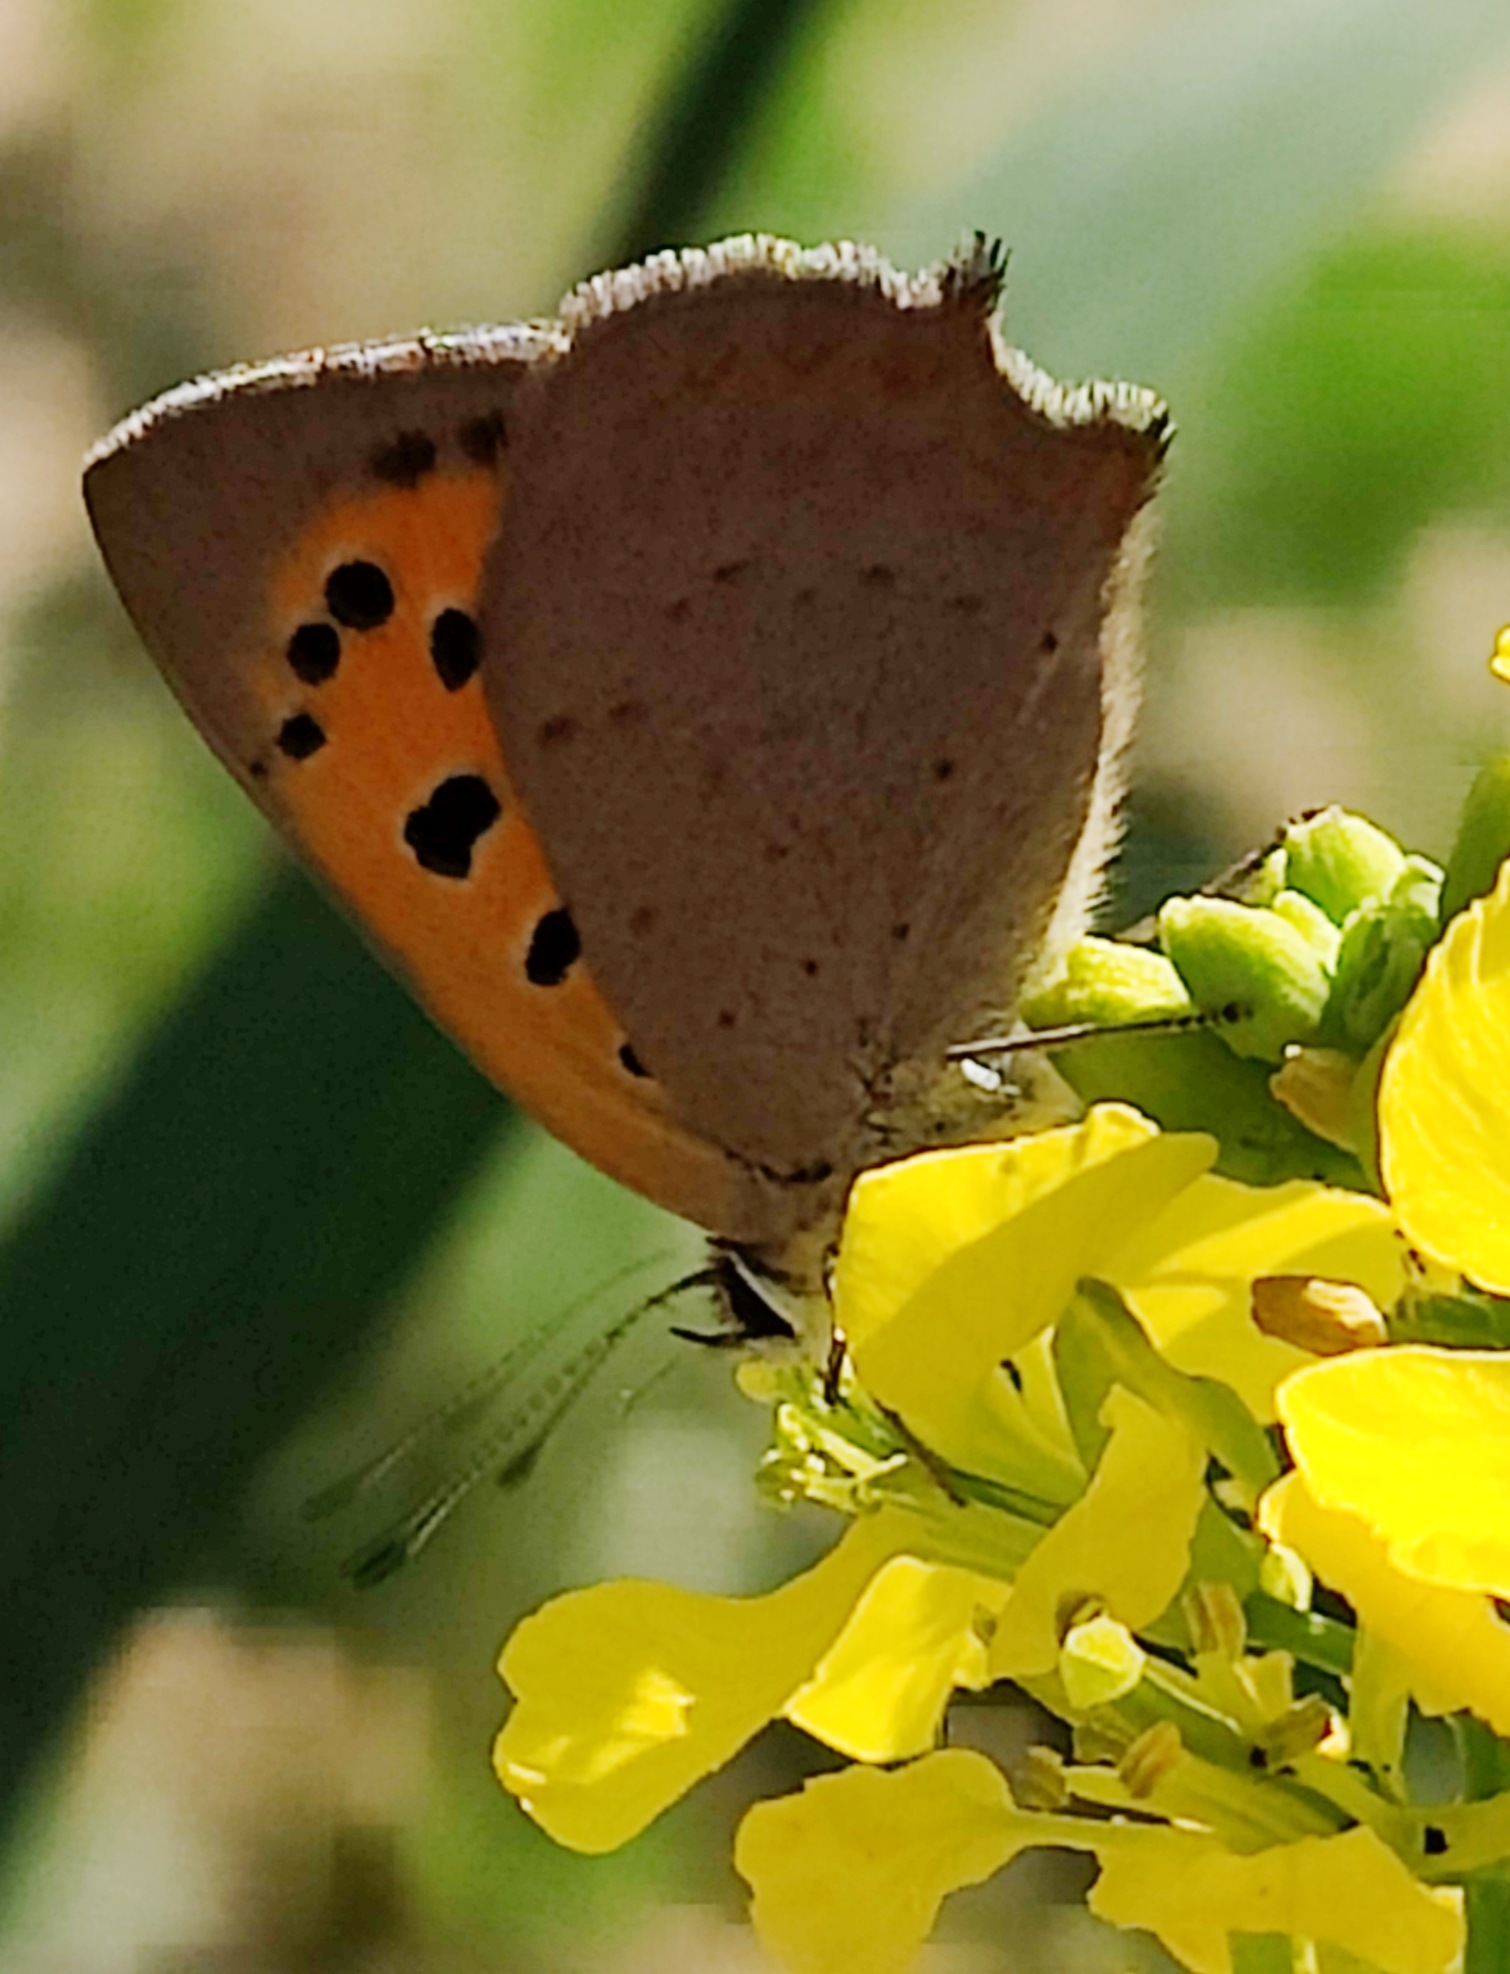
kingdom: Animalia
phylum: Arthropoda
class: Insecta
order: Lepidoptera
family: Lycaenidae
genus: Lycaena
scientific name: Lycaena phlaeas
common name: Lille ildfugl
